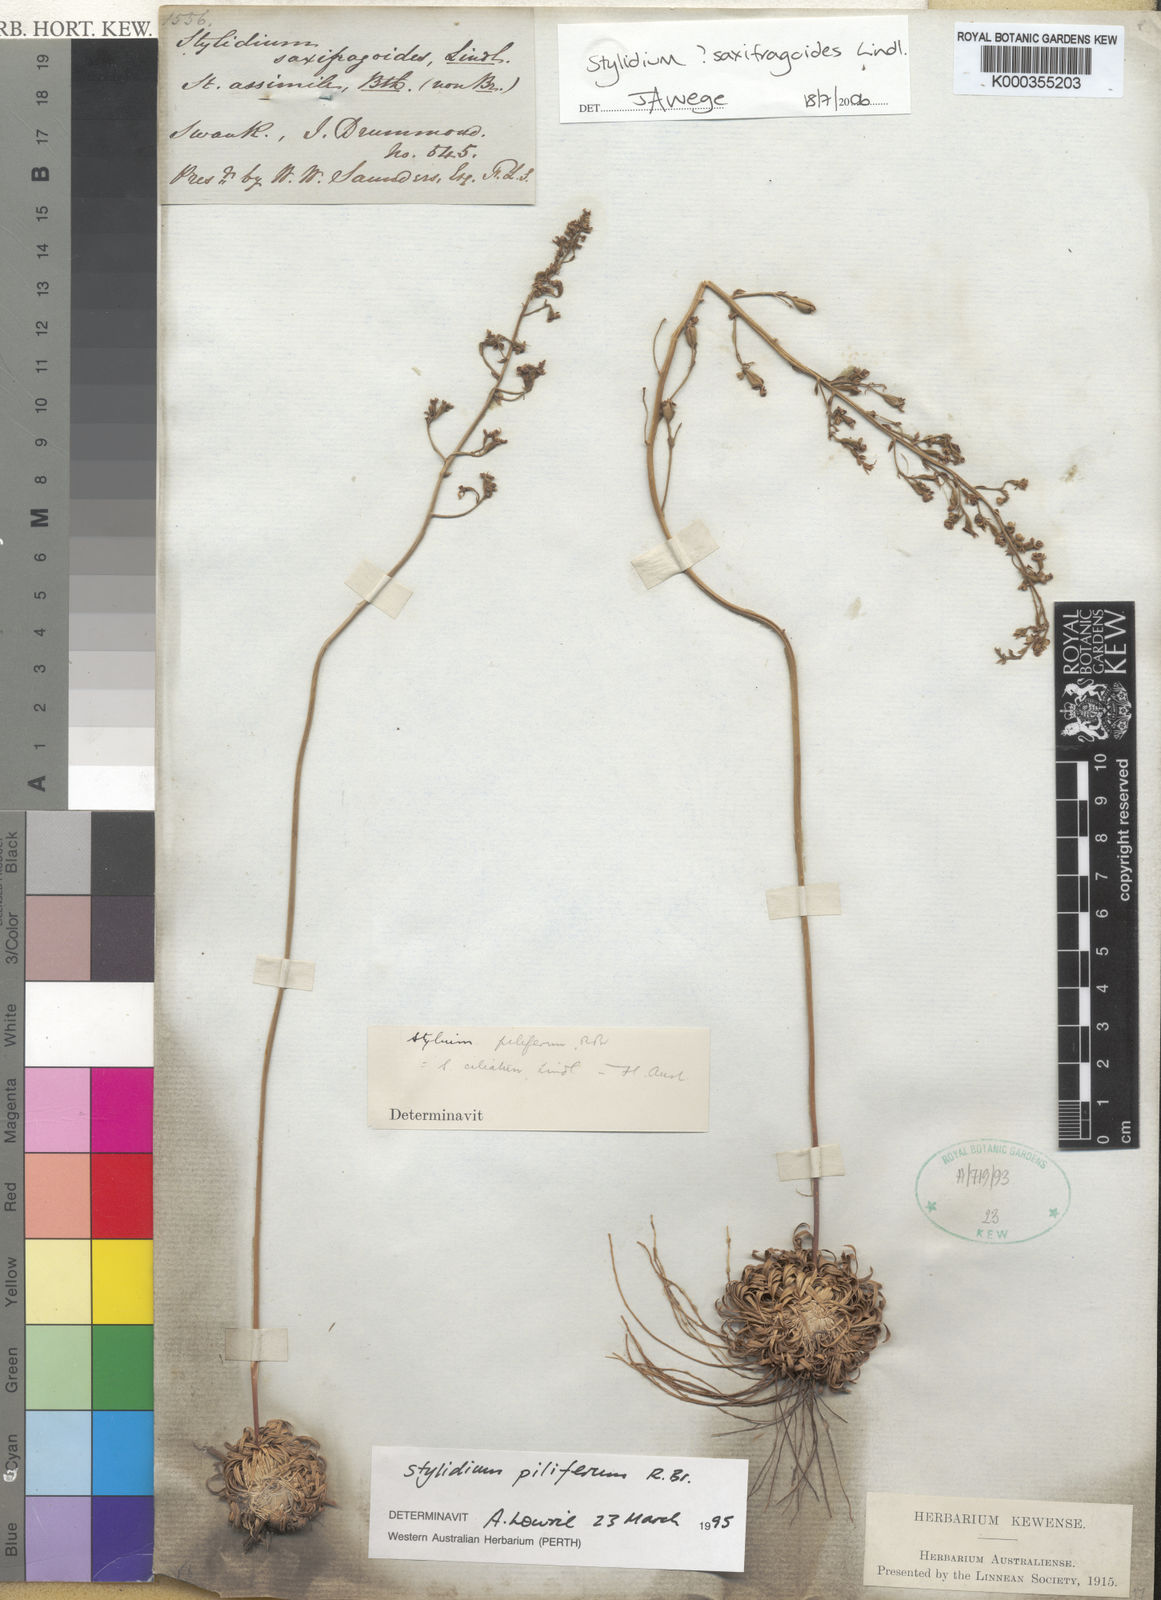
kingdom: Plantae
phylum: Tracheophyta
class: Magnoliopsida
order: Asterales
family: Stylidiaceae
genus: Stylidium
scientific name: Stylidium piliferum
